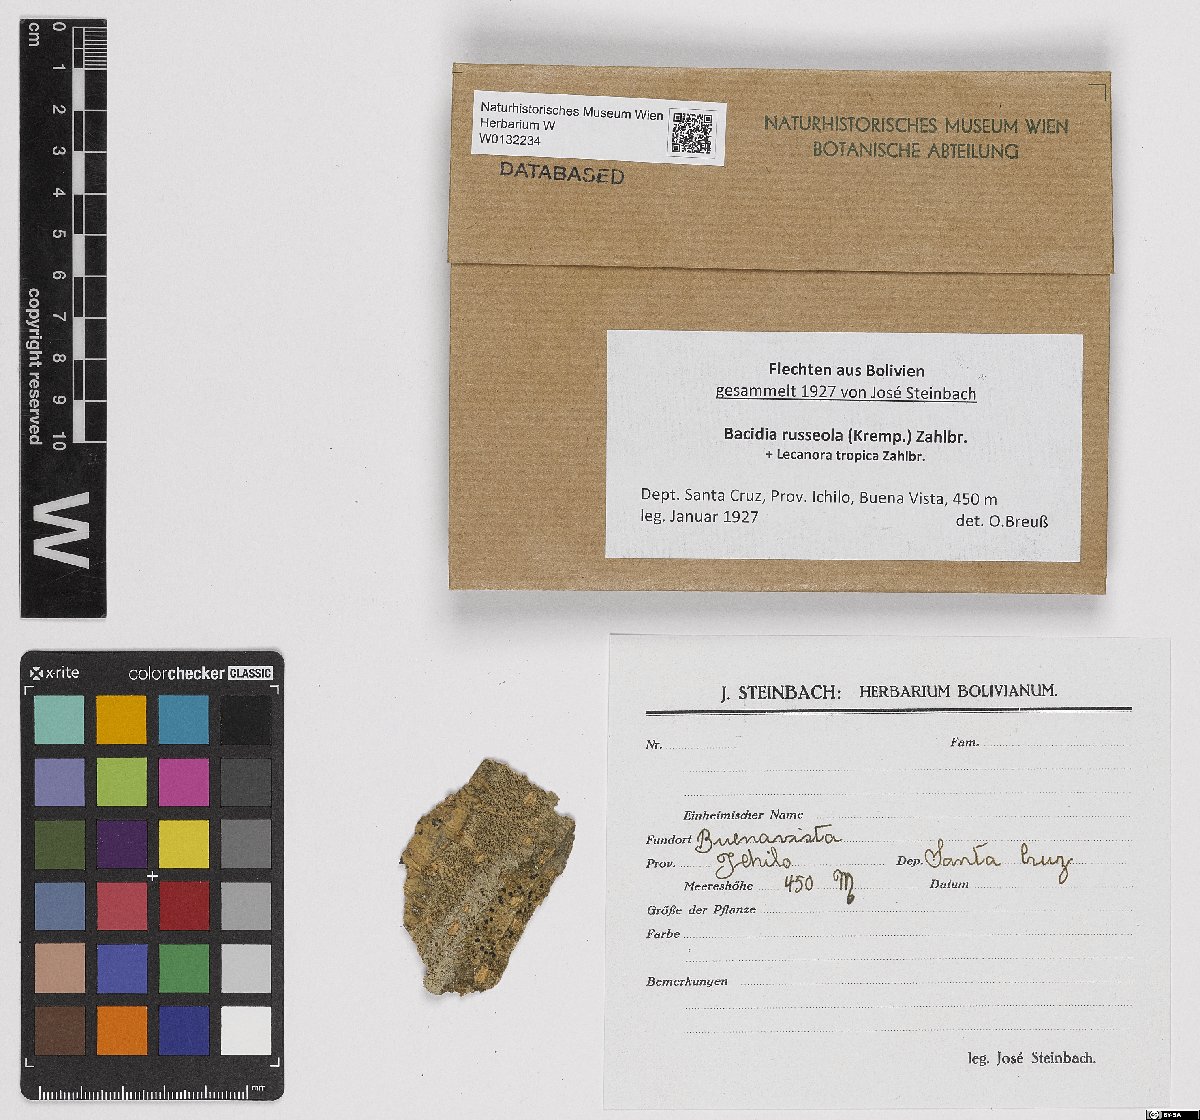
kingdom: Fungi
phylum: Ascomycota
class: Lecanoromycetes
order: Lecanorales
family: Ramalinaceae
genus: Bacidia
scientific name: Bacidia russeola
